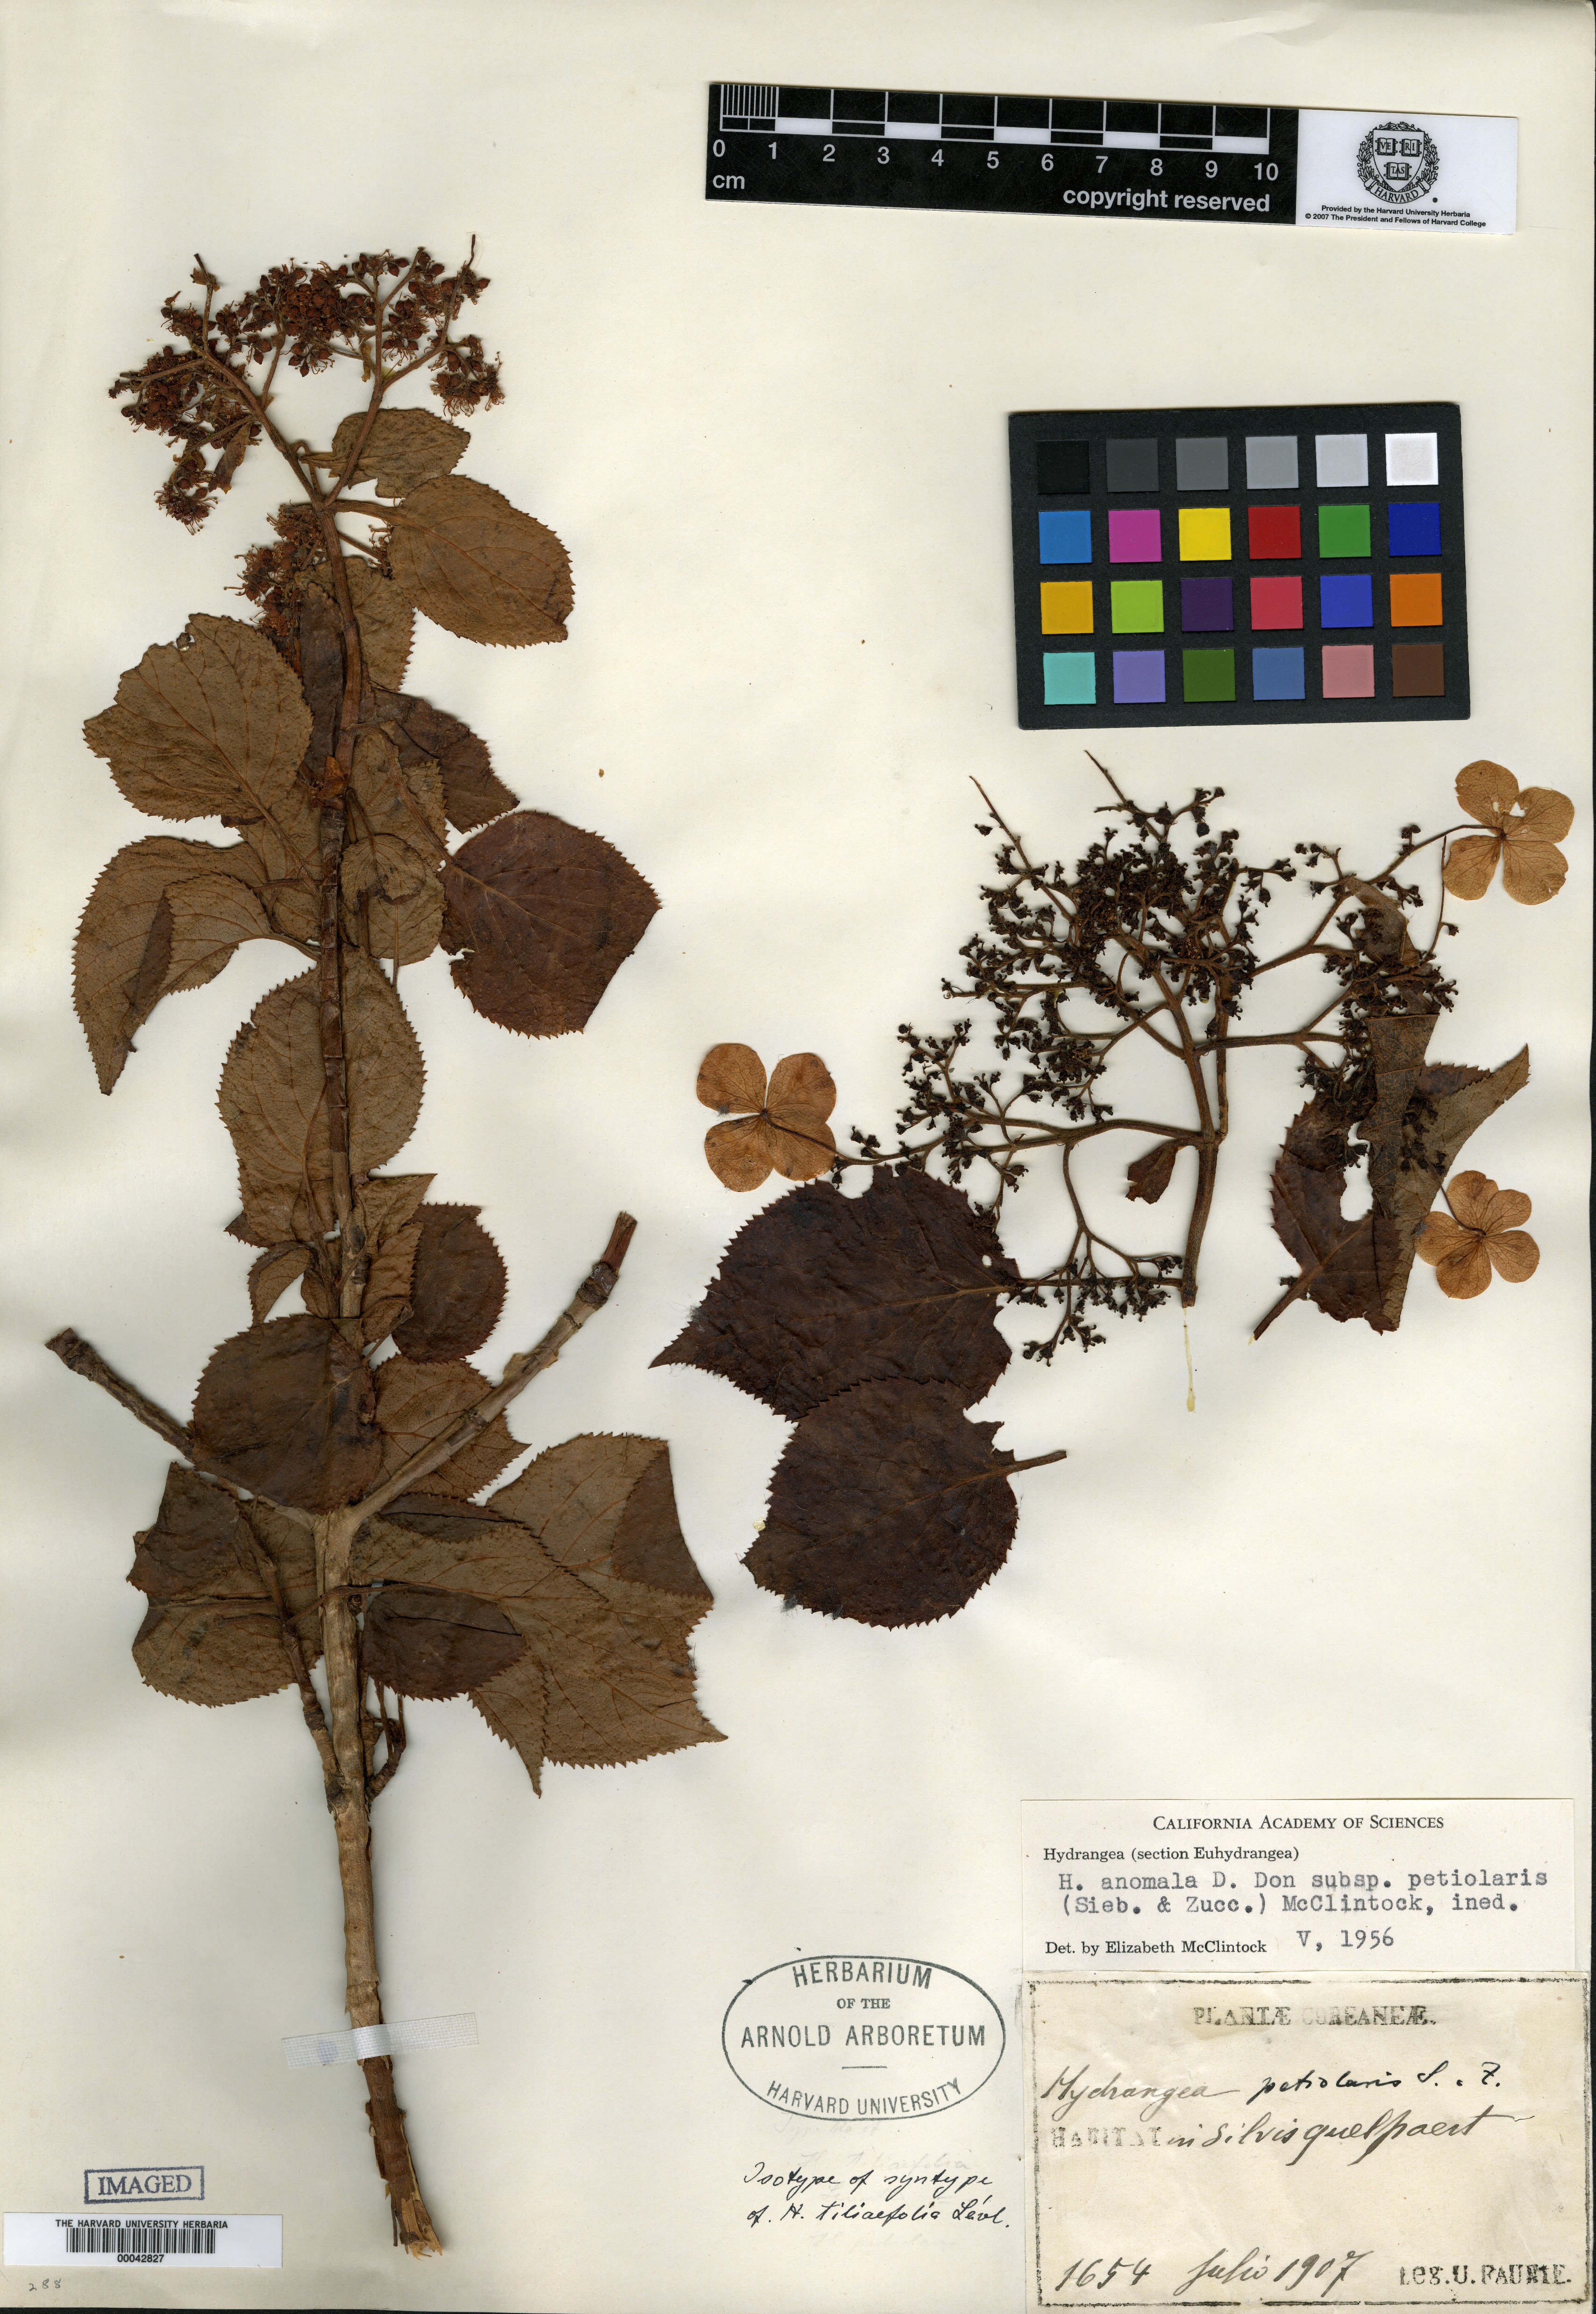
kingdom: Plantae
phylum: Tracheophyta
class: Magnoliopsida
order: Cornales
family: Hydrangeaceae
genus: Hydrangea
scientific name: Hydrangea petiolaris
